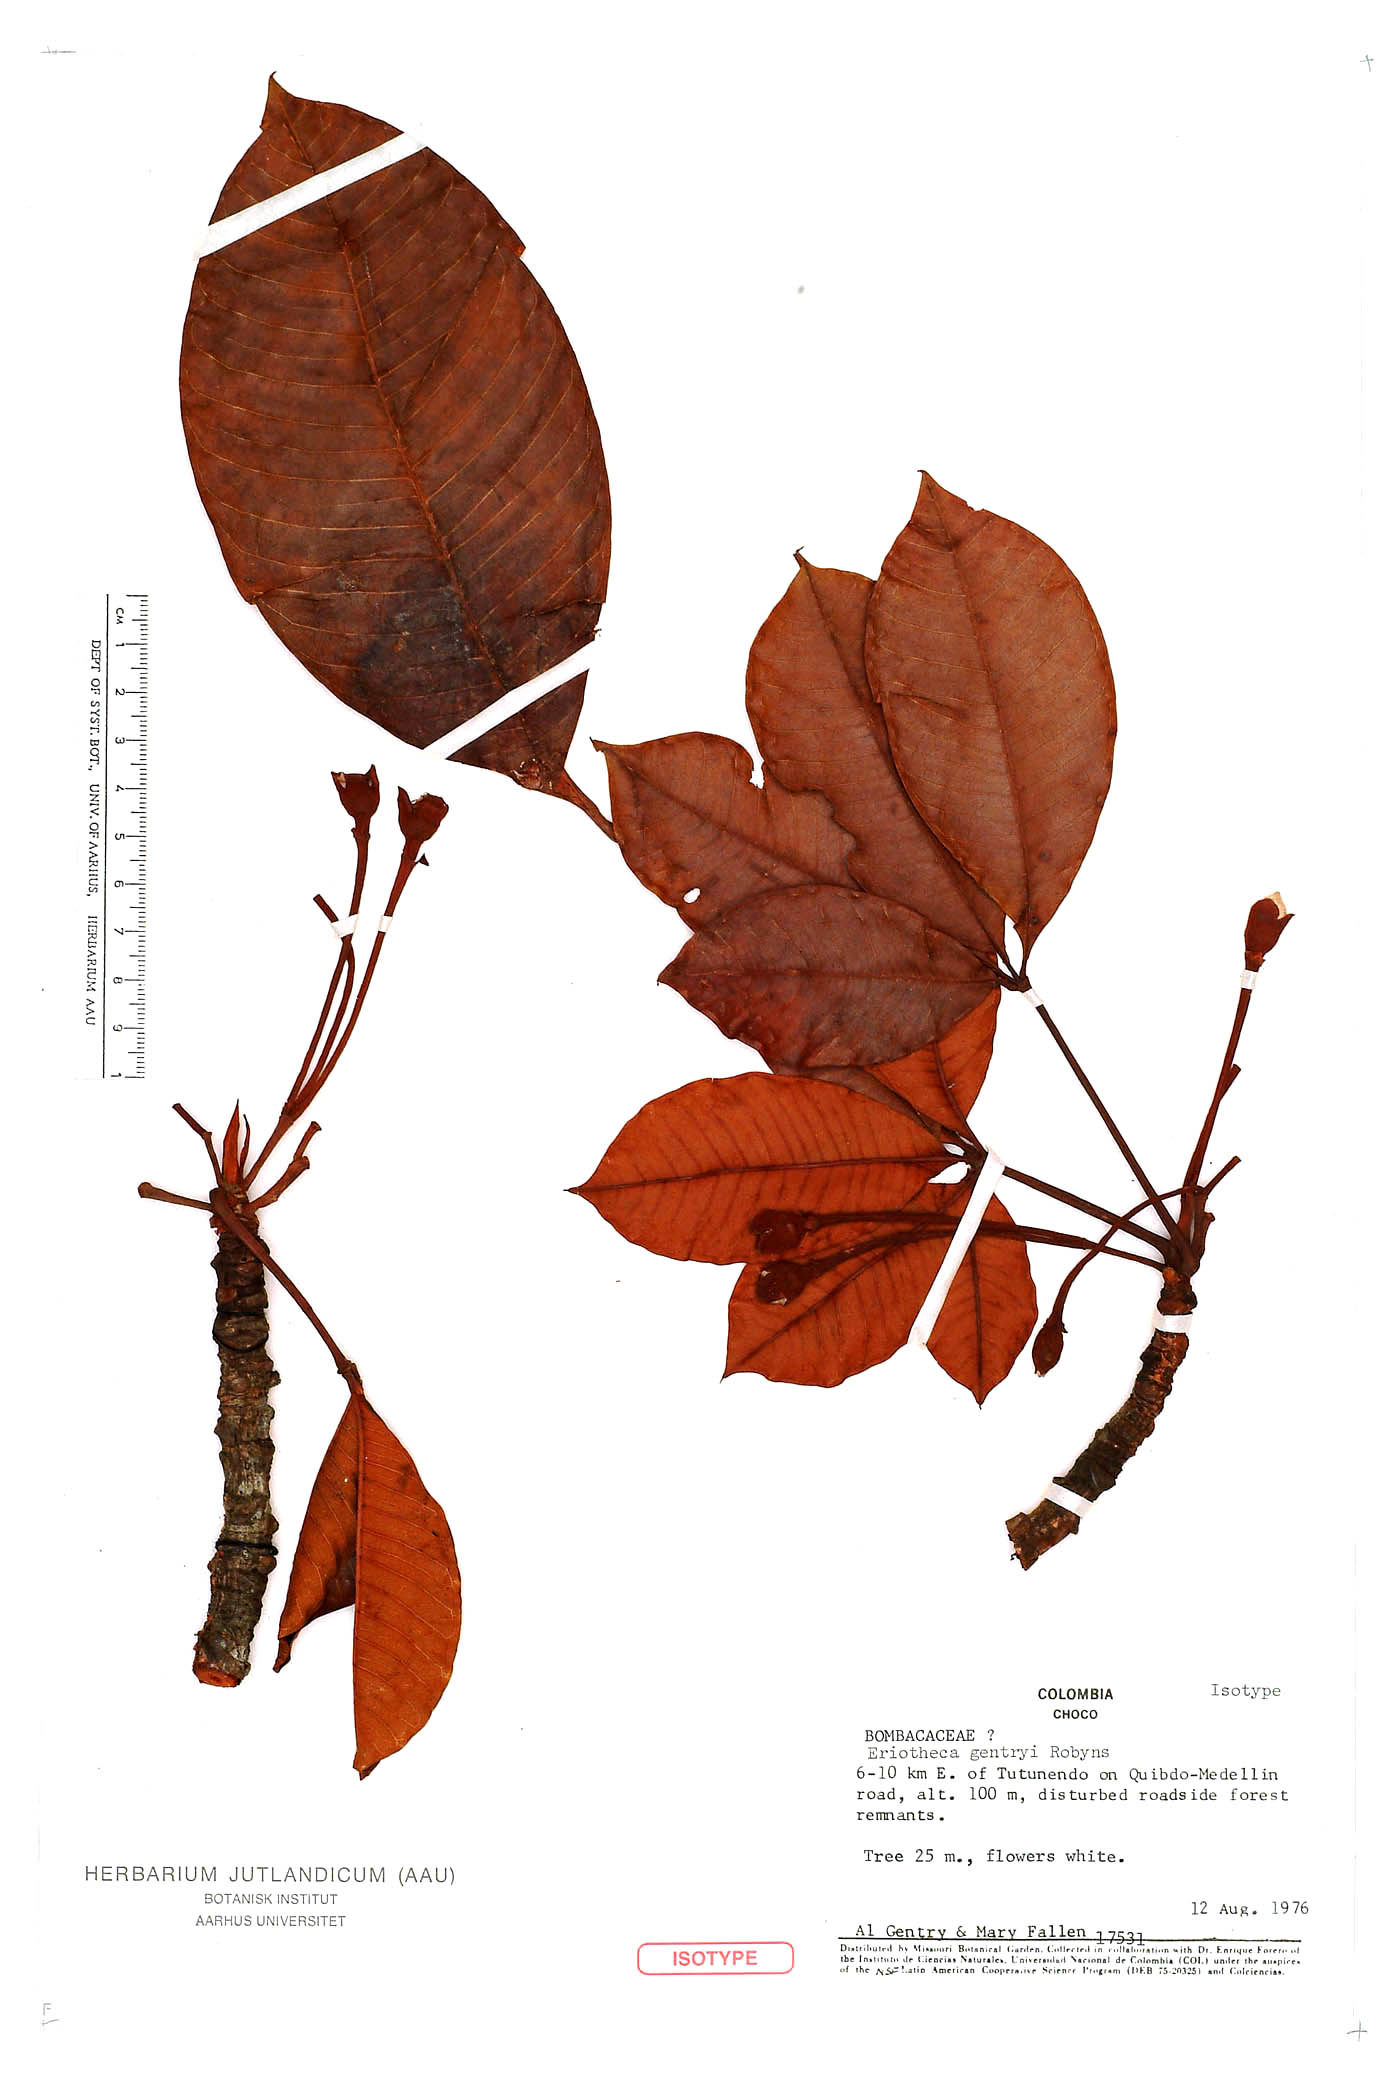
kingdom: Plantae
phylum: Tracheophyta
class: Magnoliopsida
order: Malvales
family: Malvaceae
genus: Eriotheca
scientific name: Eriotheca squamigera
